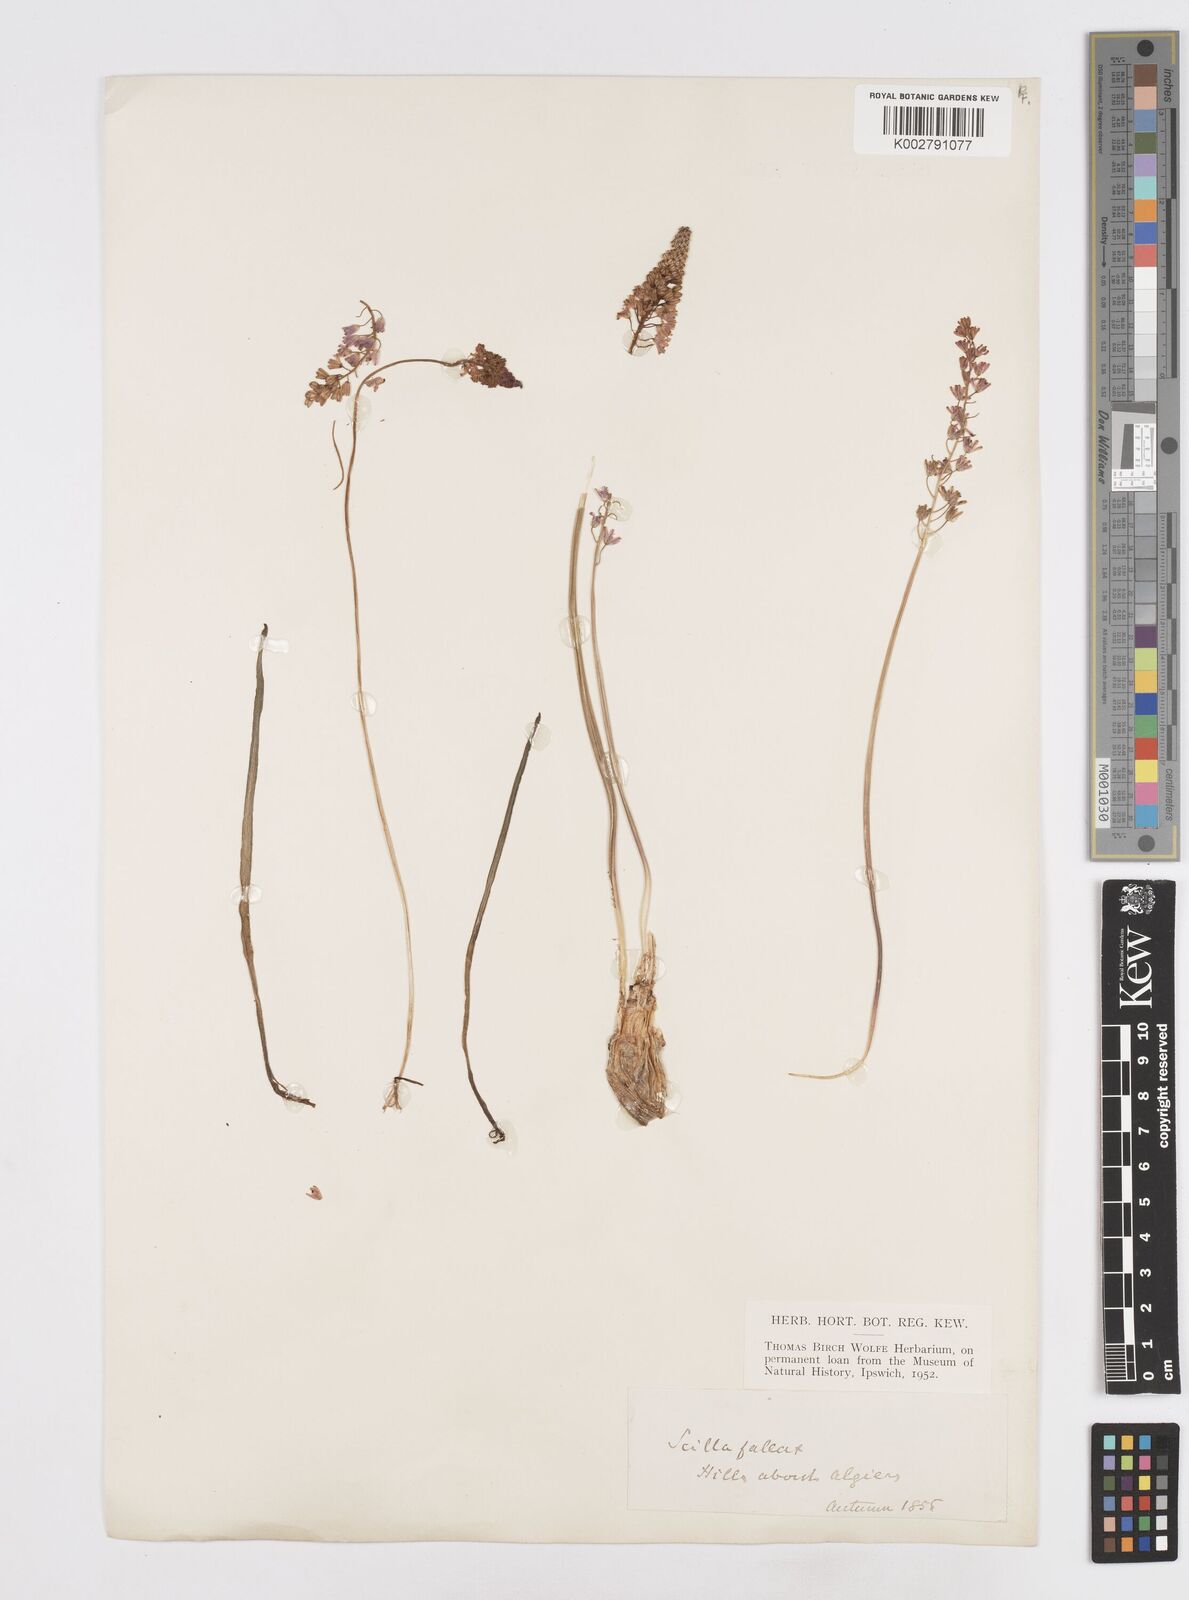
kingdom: Plantae
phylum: Tracheophyta
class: Liliopsida
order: Asparagales
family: Asparagaceae
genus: Prospero
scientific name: Prospero fallax
